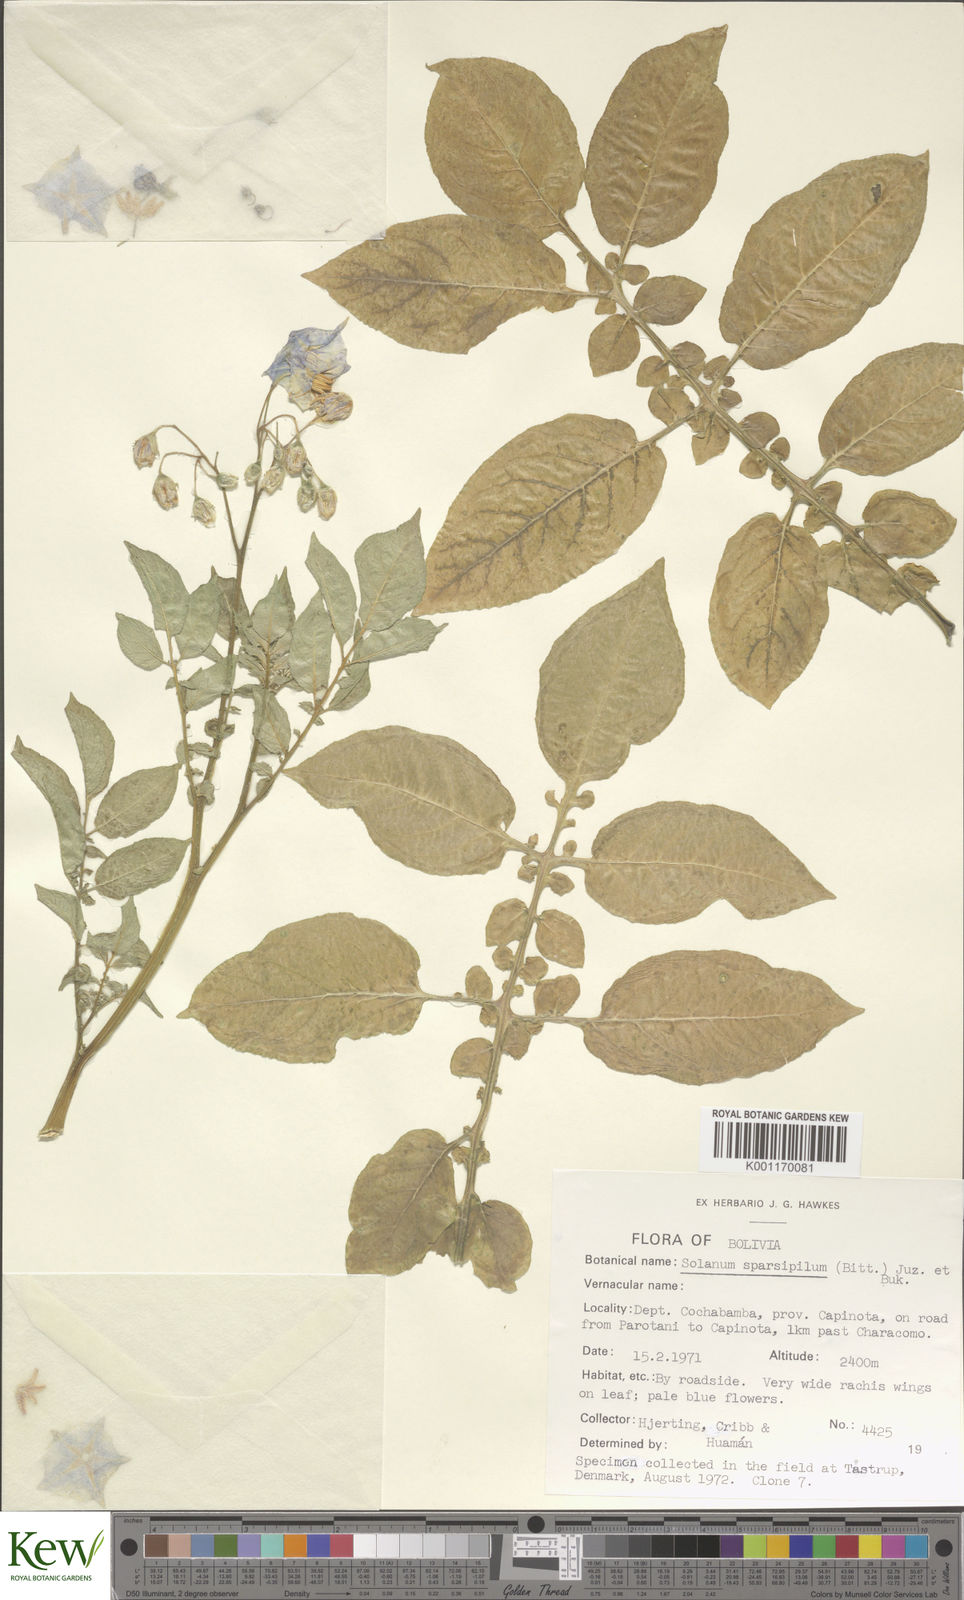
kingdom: Plantae
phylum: Tracheophyta
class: Magnoliopsida
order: Solanales
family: Solanaceae
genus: Solanum
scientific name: Solanum brevicaule
